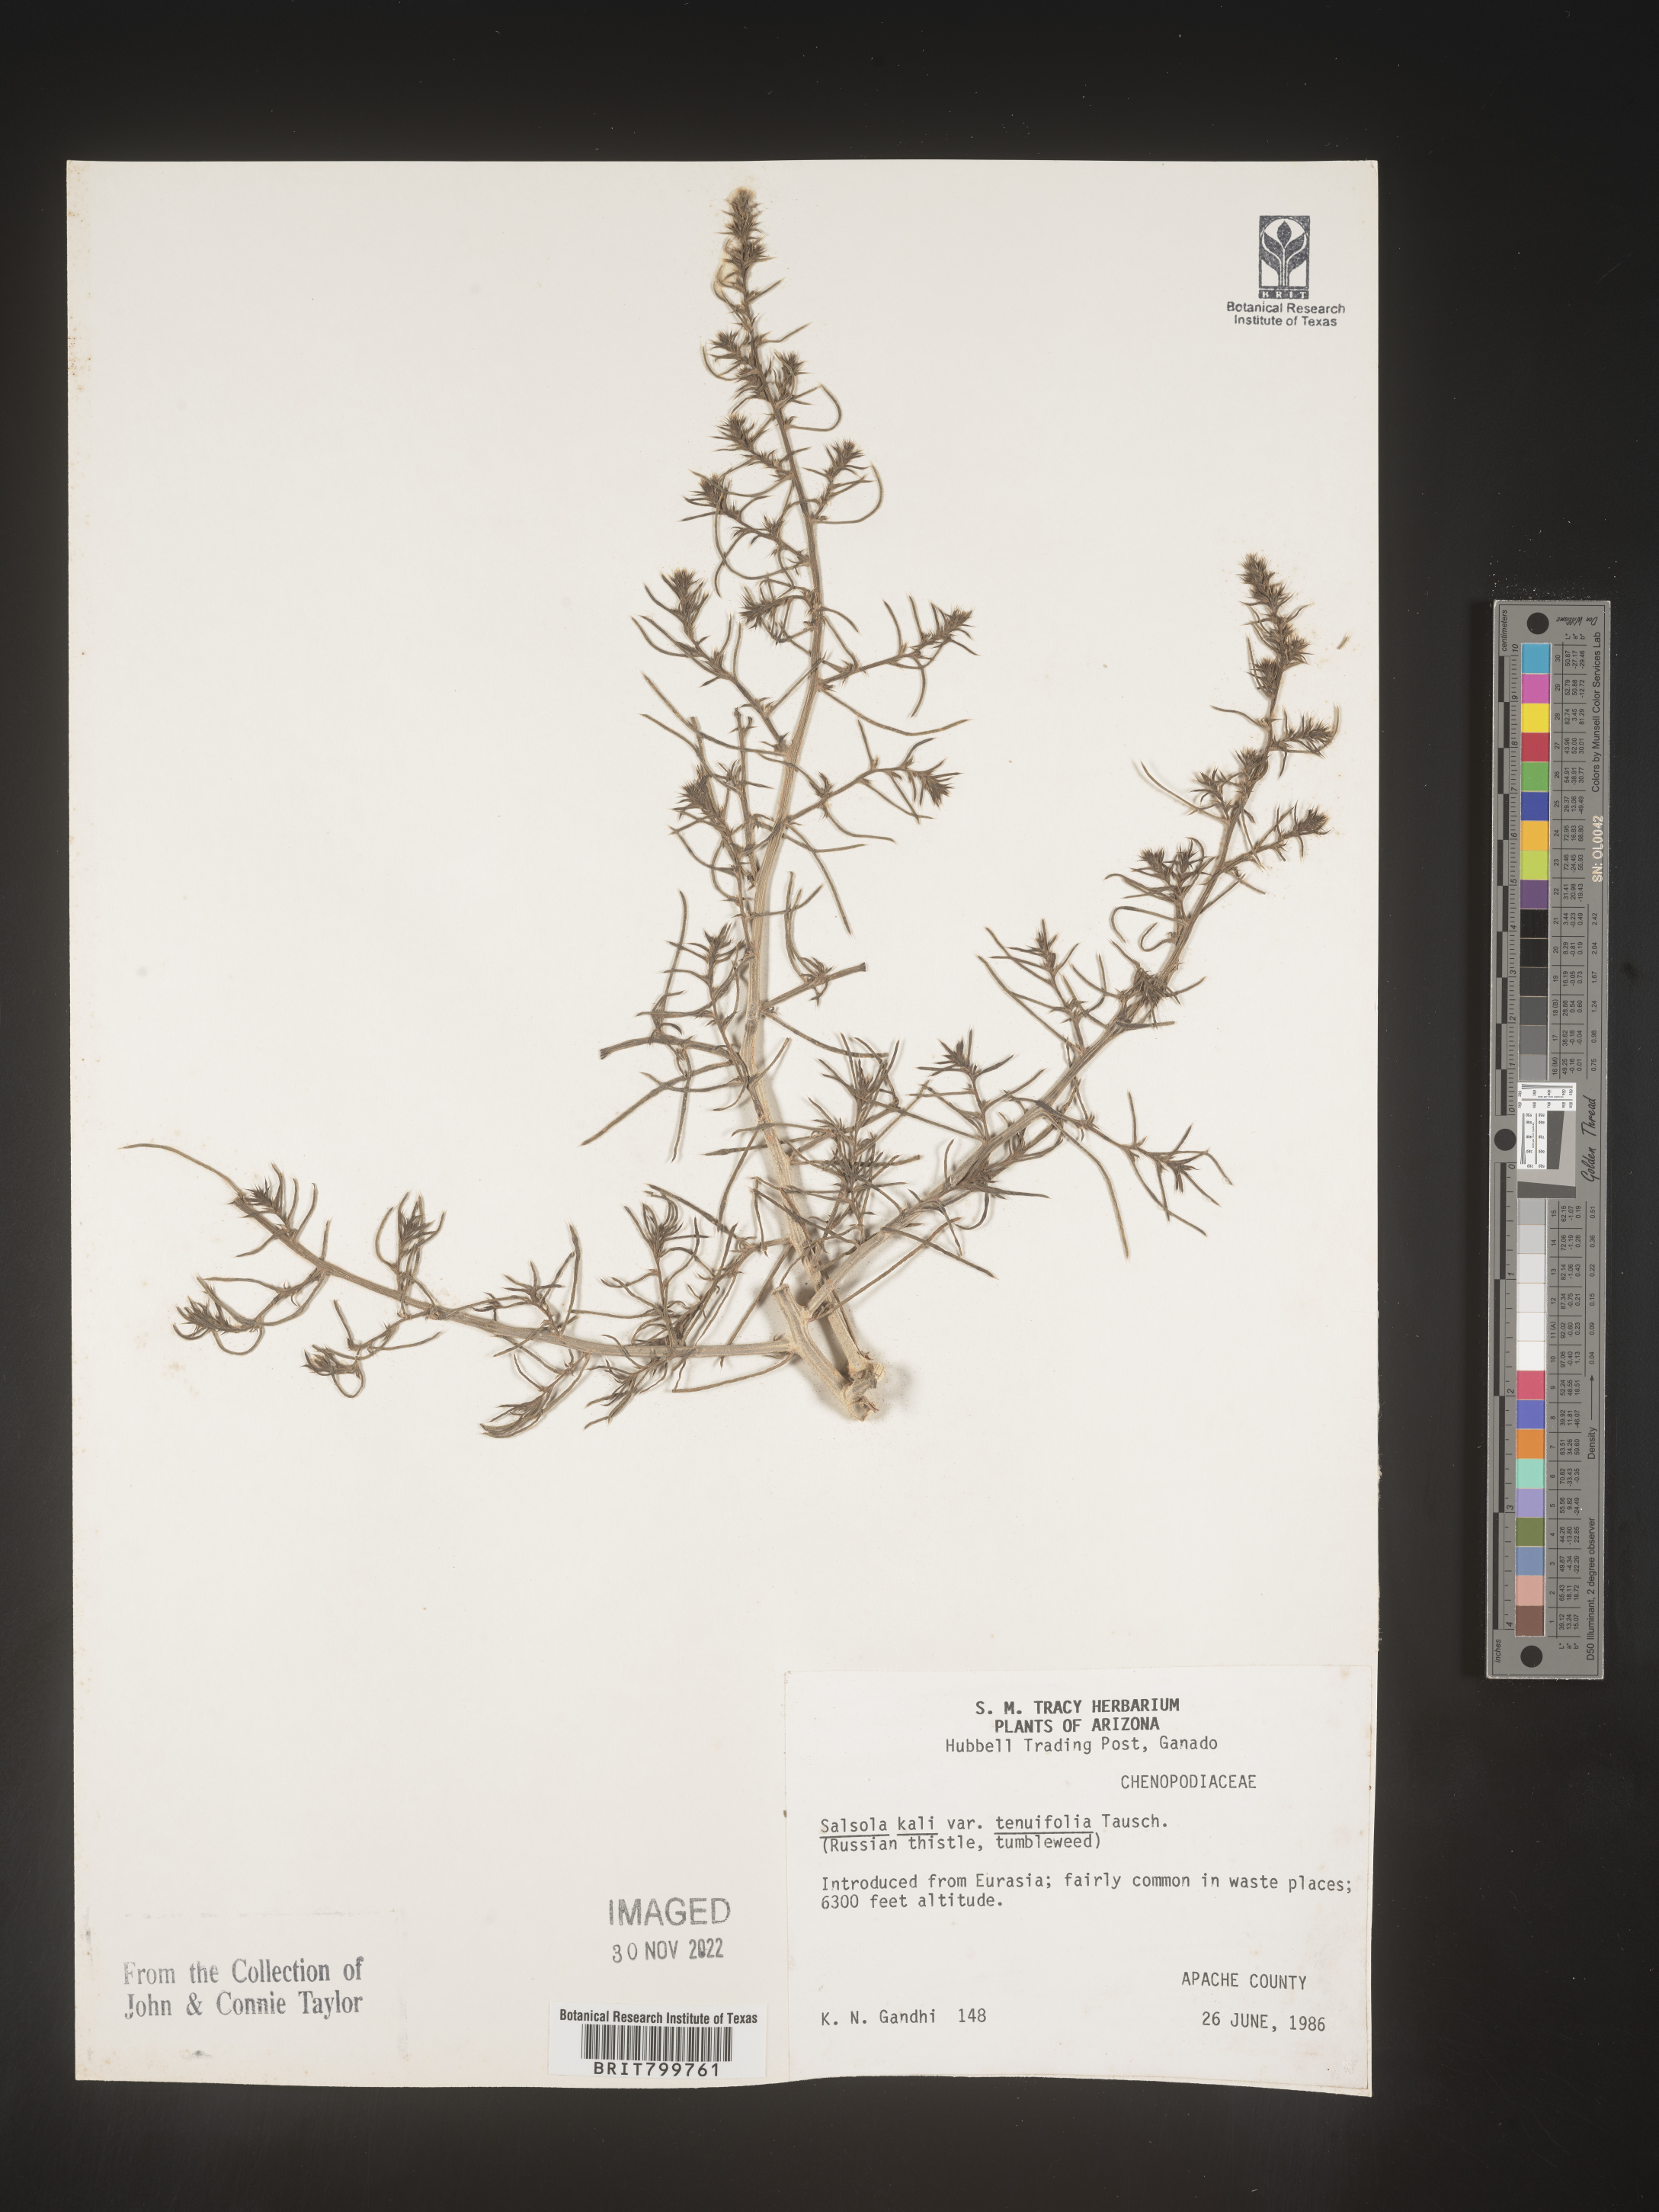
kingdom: Plantae
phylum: Tracheophyta
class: Magnoliopsida
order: Caryophyllales
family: Amaranthaceae
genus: Salsola
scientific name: Salsola tragus
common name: Prickly russian thistle
